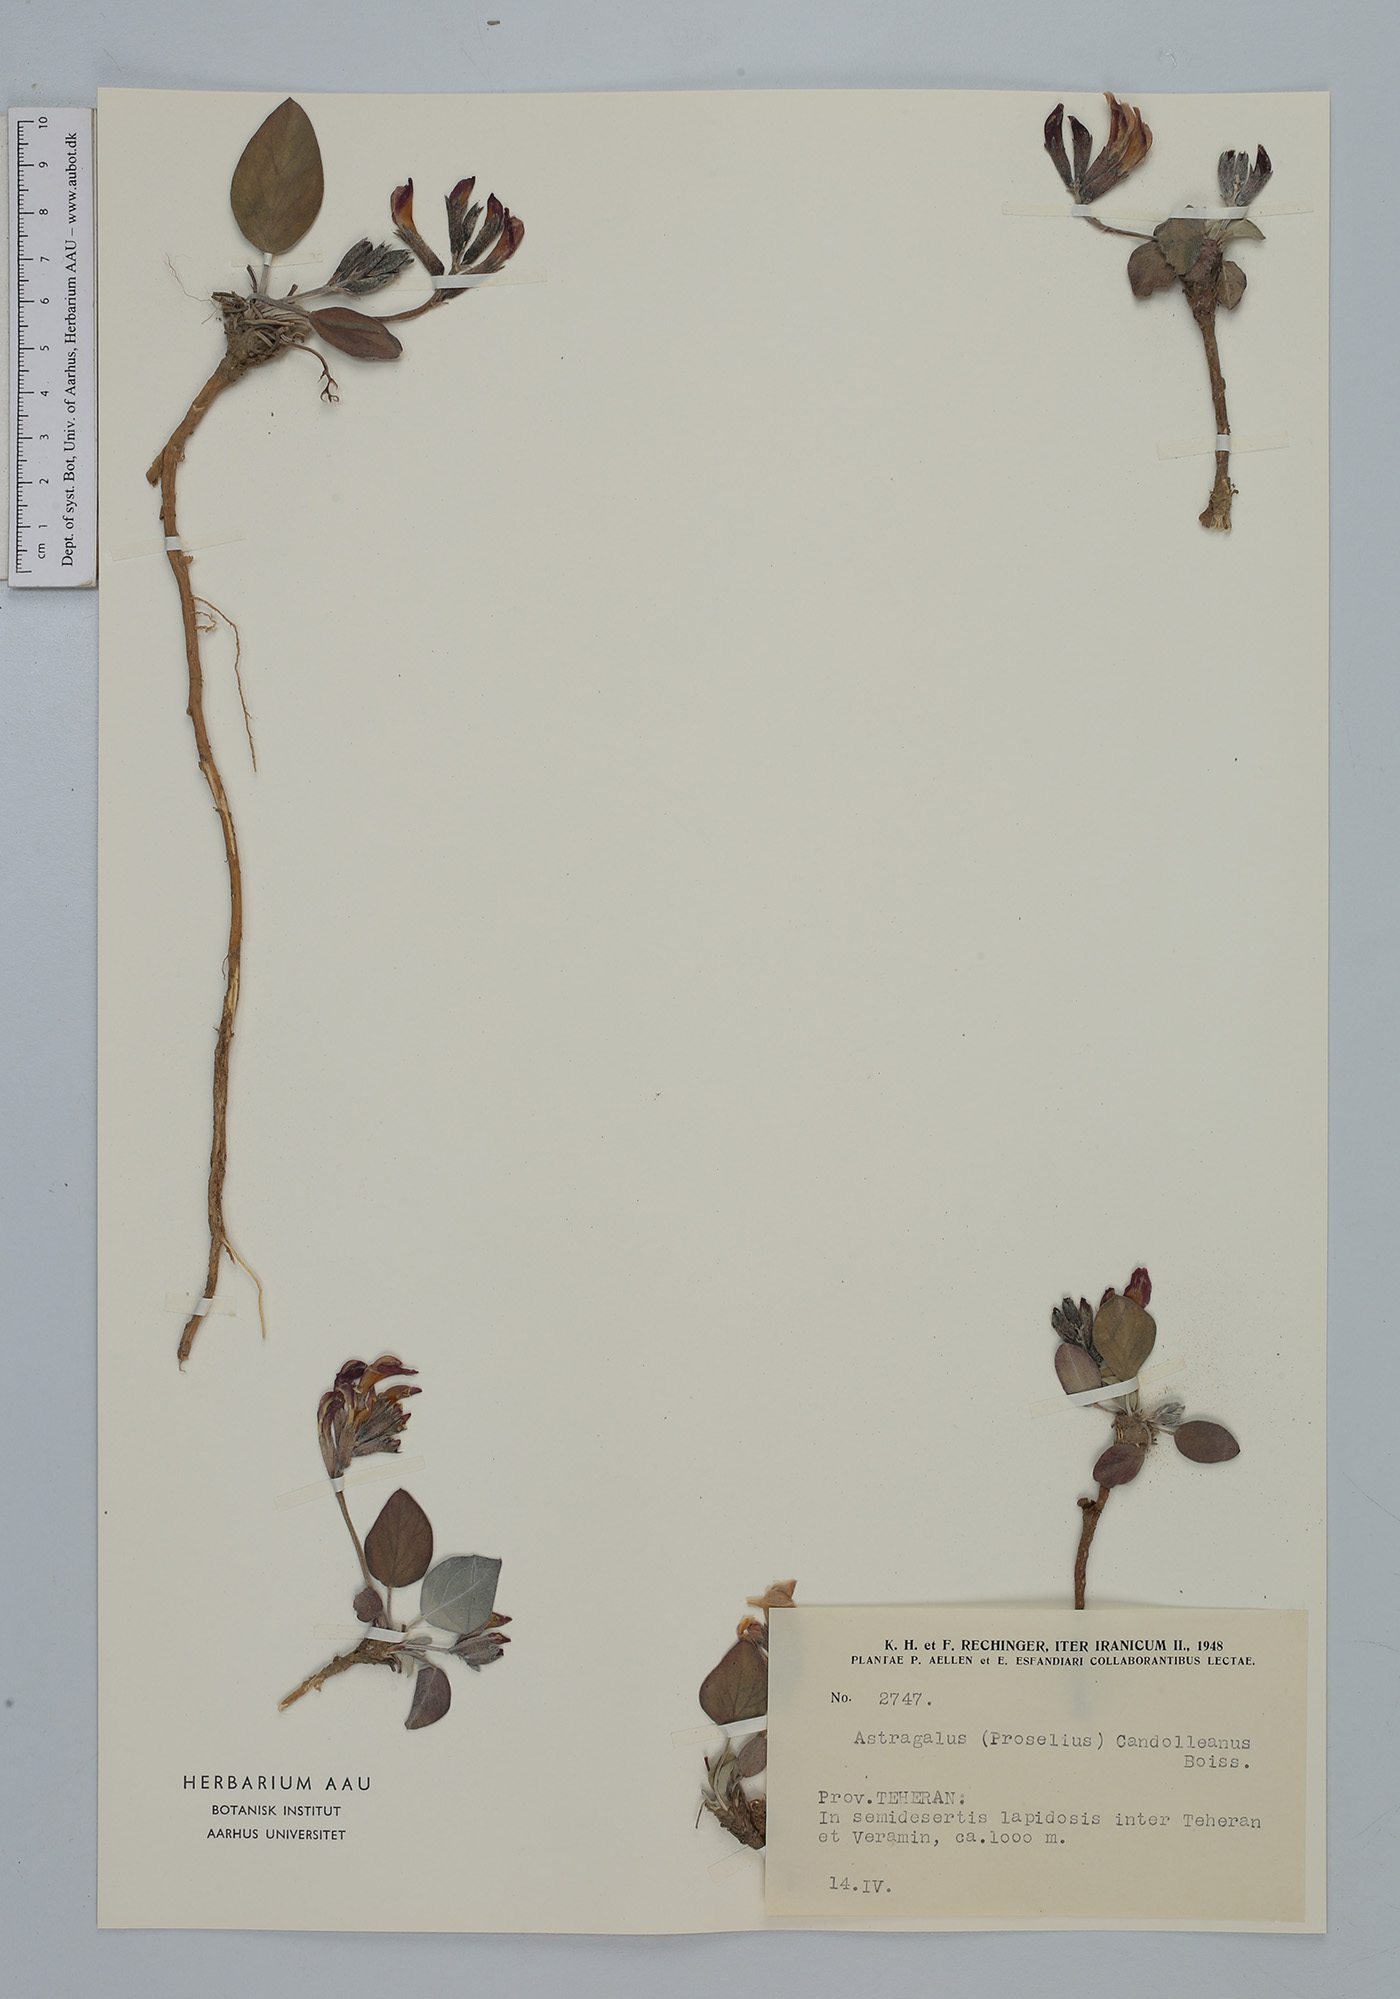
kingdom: Plantae
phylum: Tracheophyta
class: Magnoliopsida
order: Fabales
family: Fabaceae
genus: Astragalus
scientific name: Astragalus supervisus
